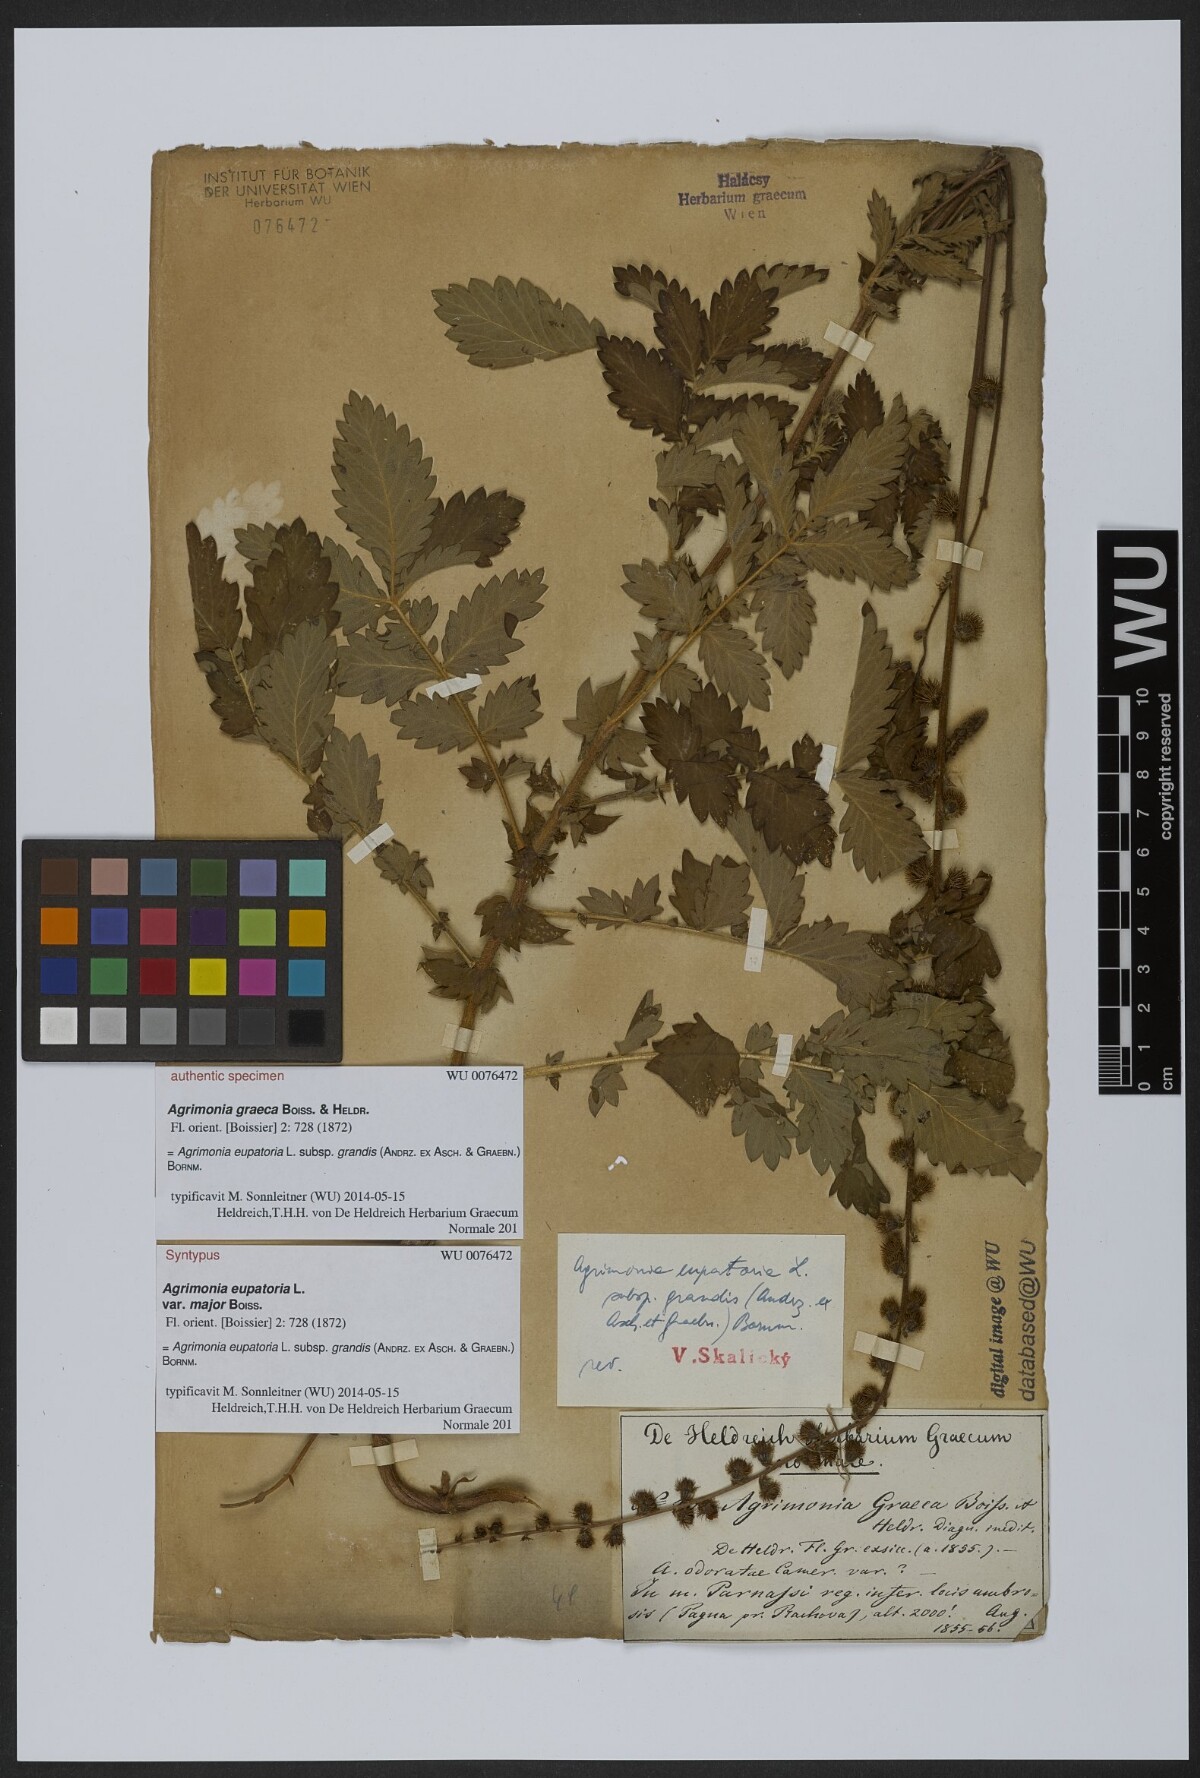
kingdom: Plantae
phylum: Tracheophyta
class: Magnoliopsida
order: Rosales
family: Rosaceae
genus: Agrimonia
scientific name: Agrimonia eupatoria
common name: Agrimony
